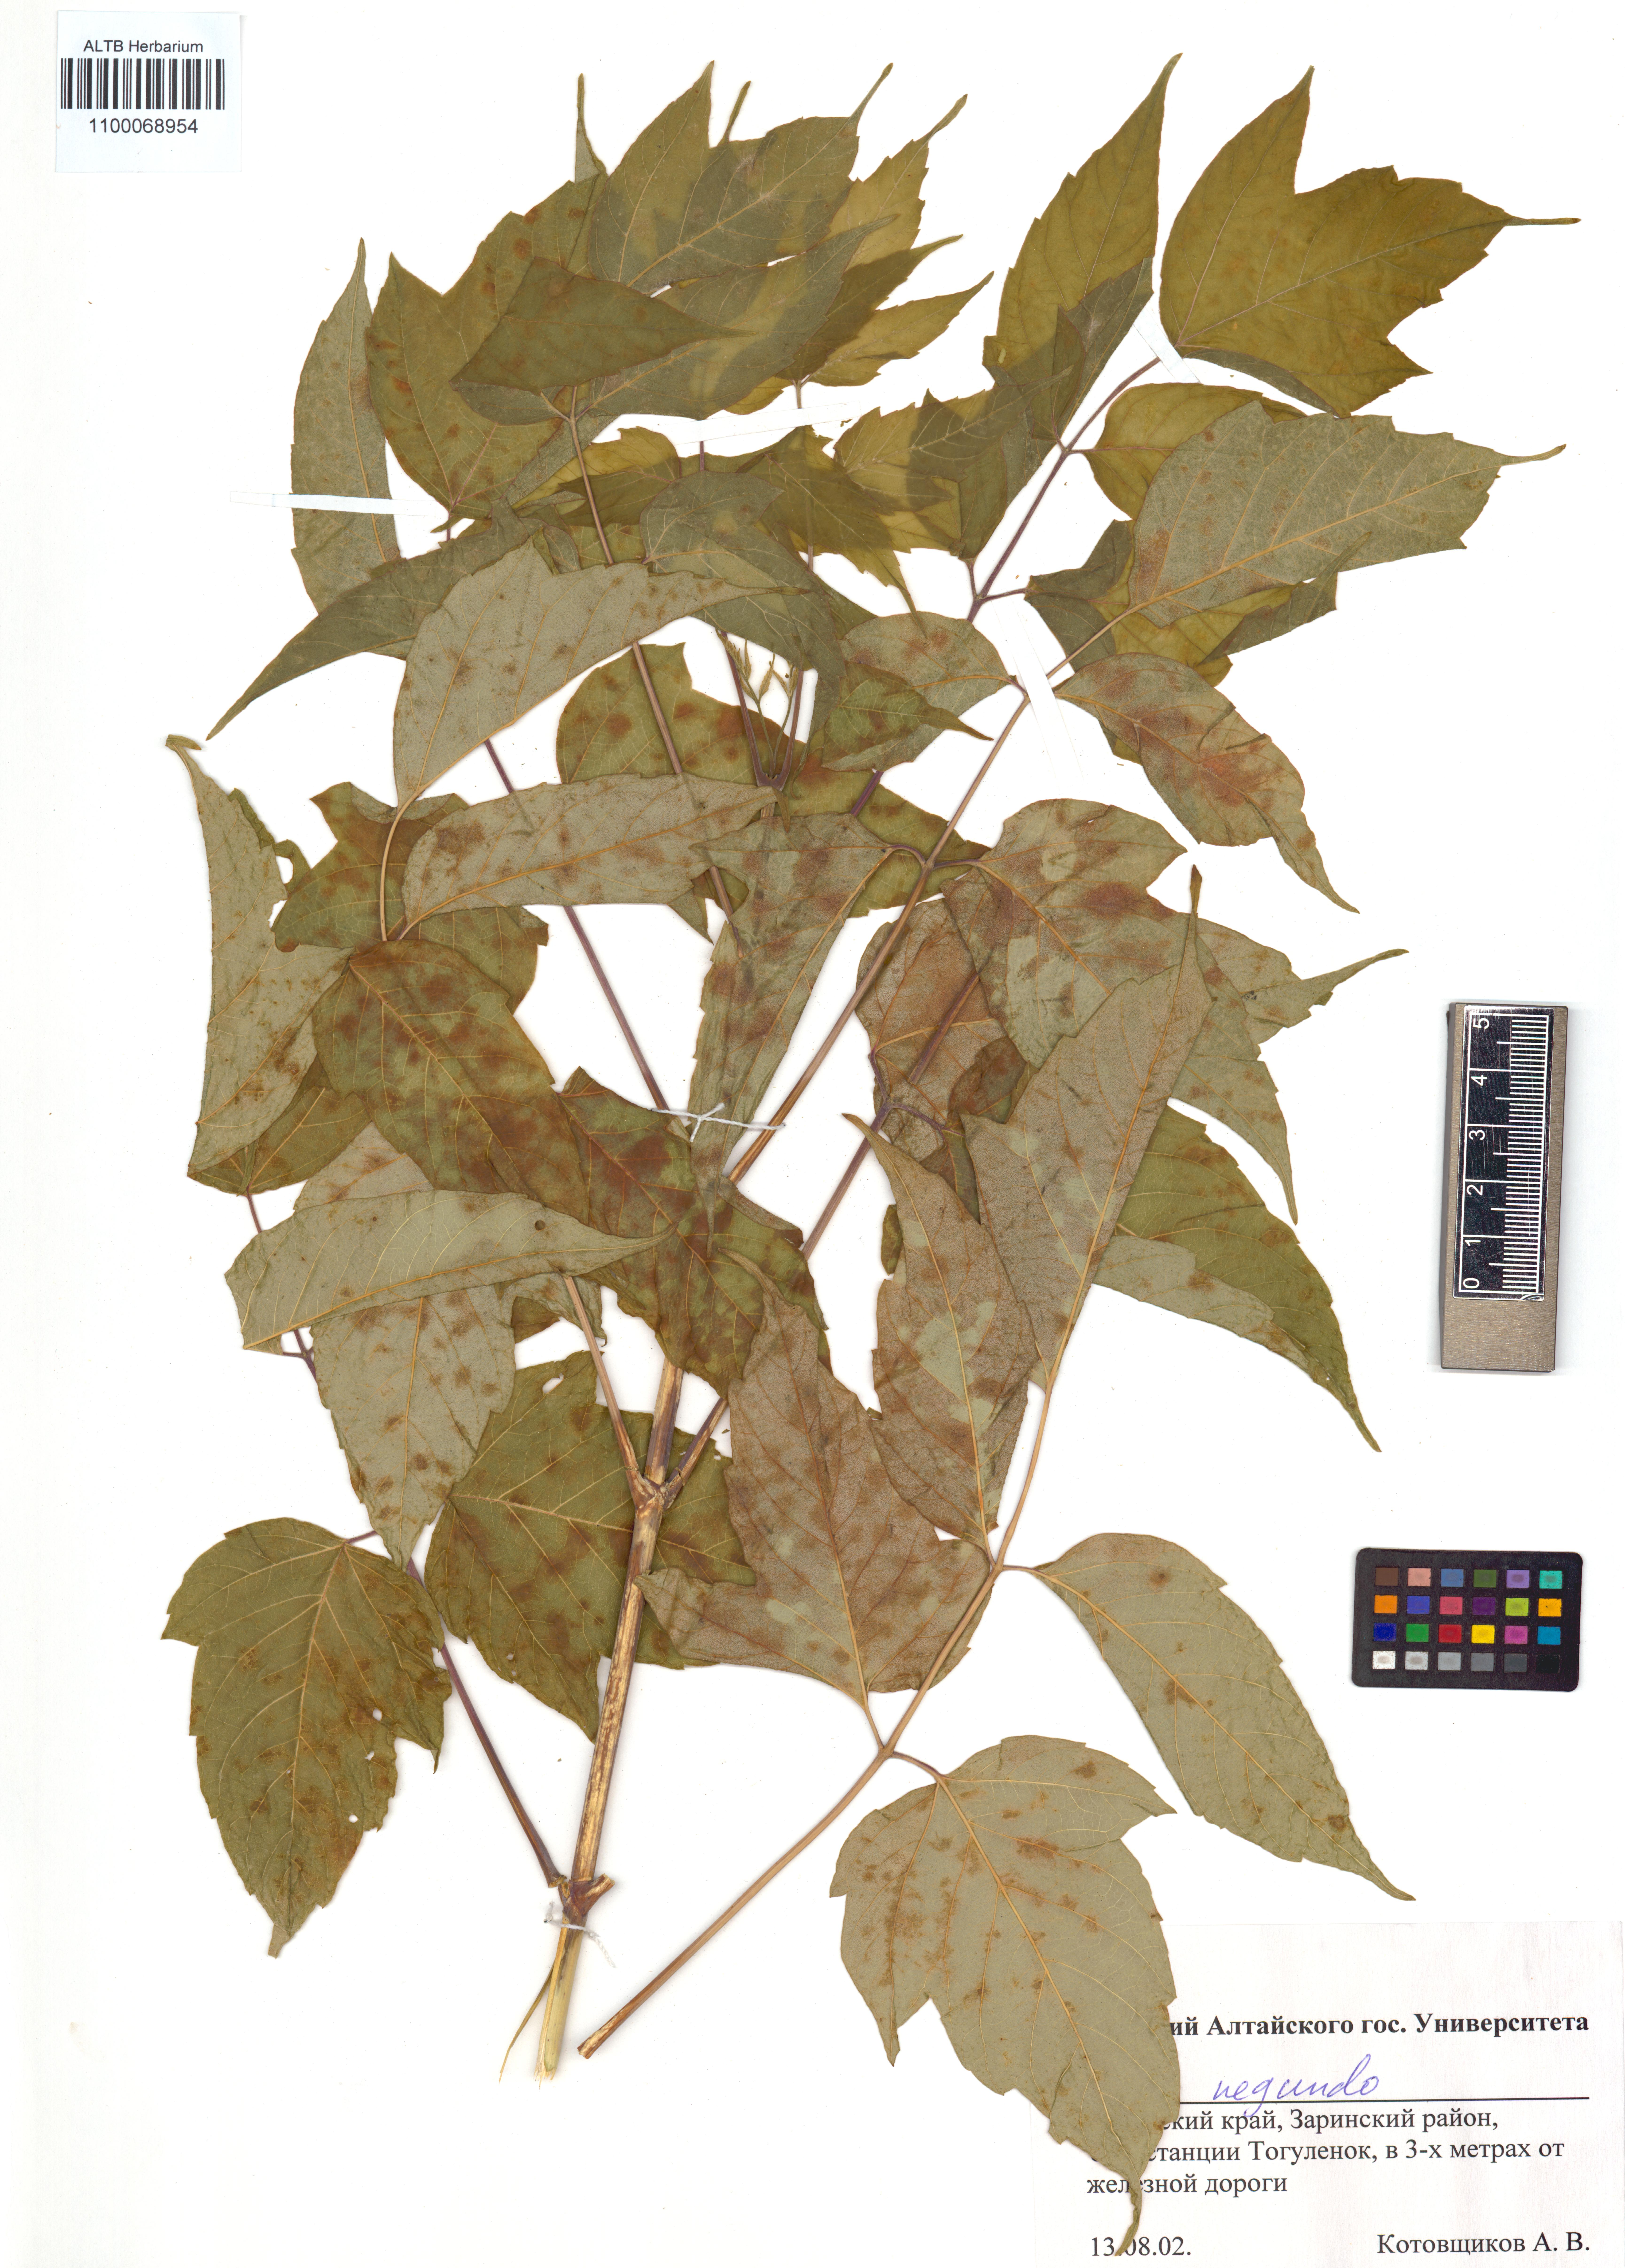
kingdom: Plantae
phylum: Tracheophyta
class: Magnoliopsida
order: Sapindales
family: Sapindaceae
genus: Acer
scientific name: Acer negundo
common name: Ashleaf maple
